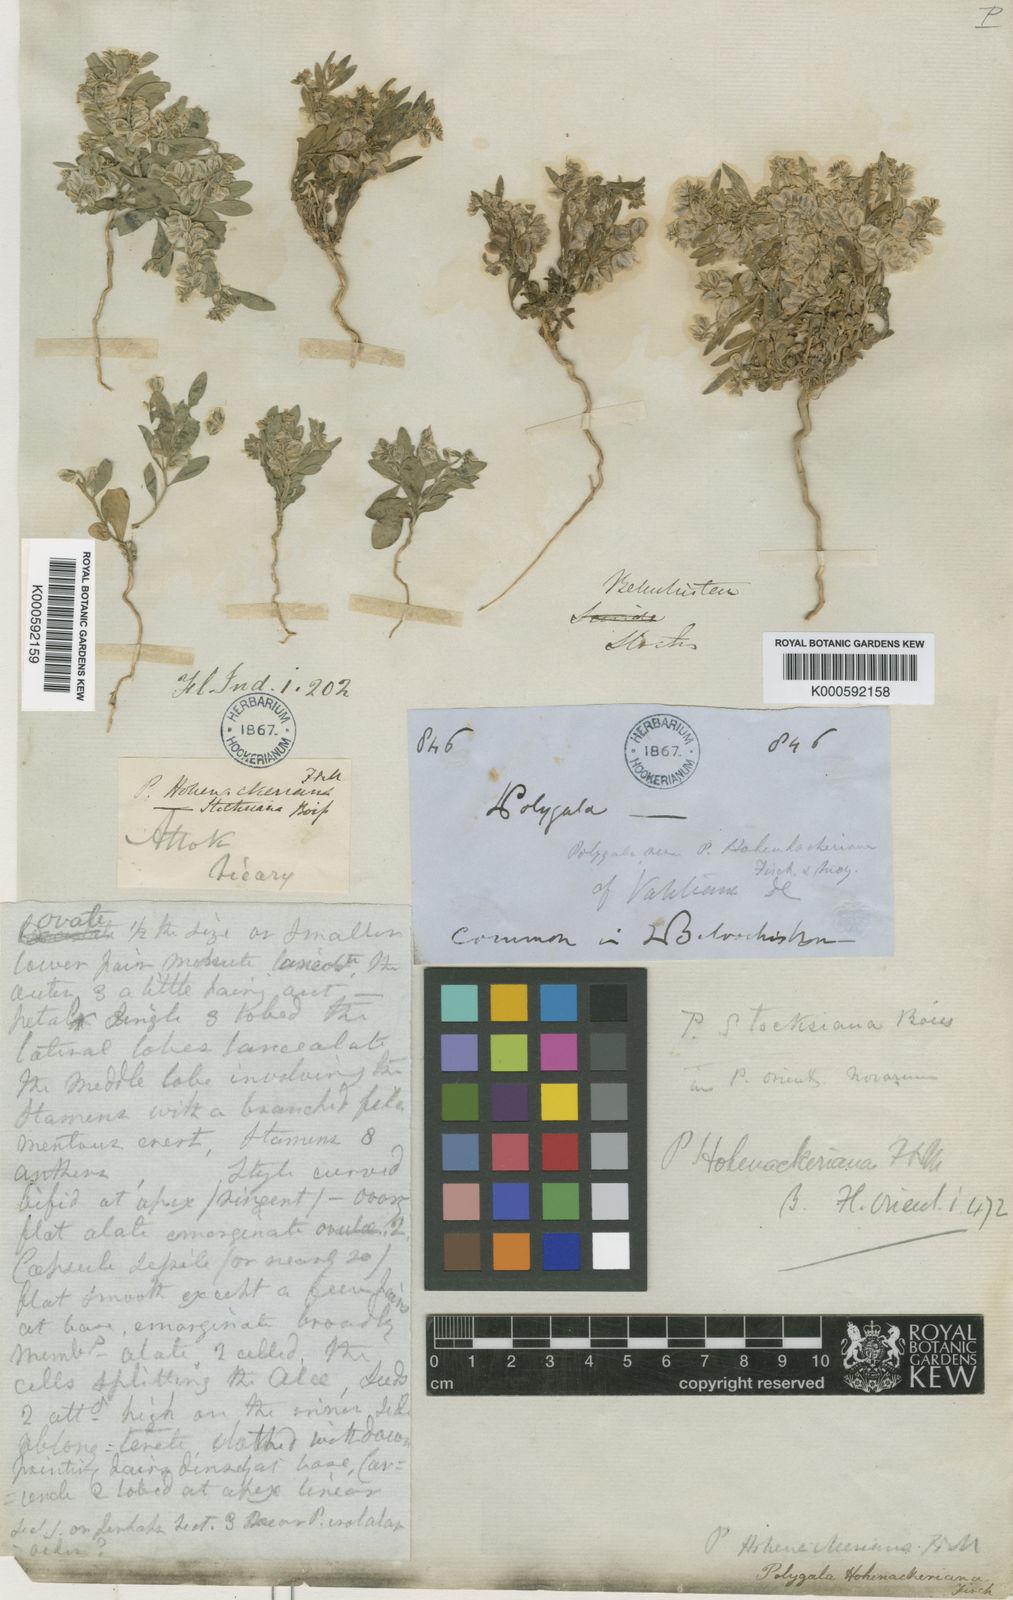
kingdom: Plantae
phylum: Tracheophyta
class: Magnoliopsida
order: Fabales
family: Polygalaceae
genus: Polygala
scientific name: Polygala stocksiana
